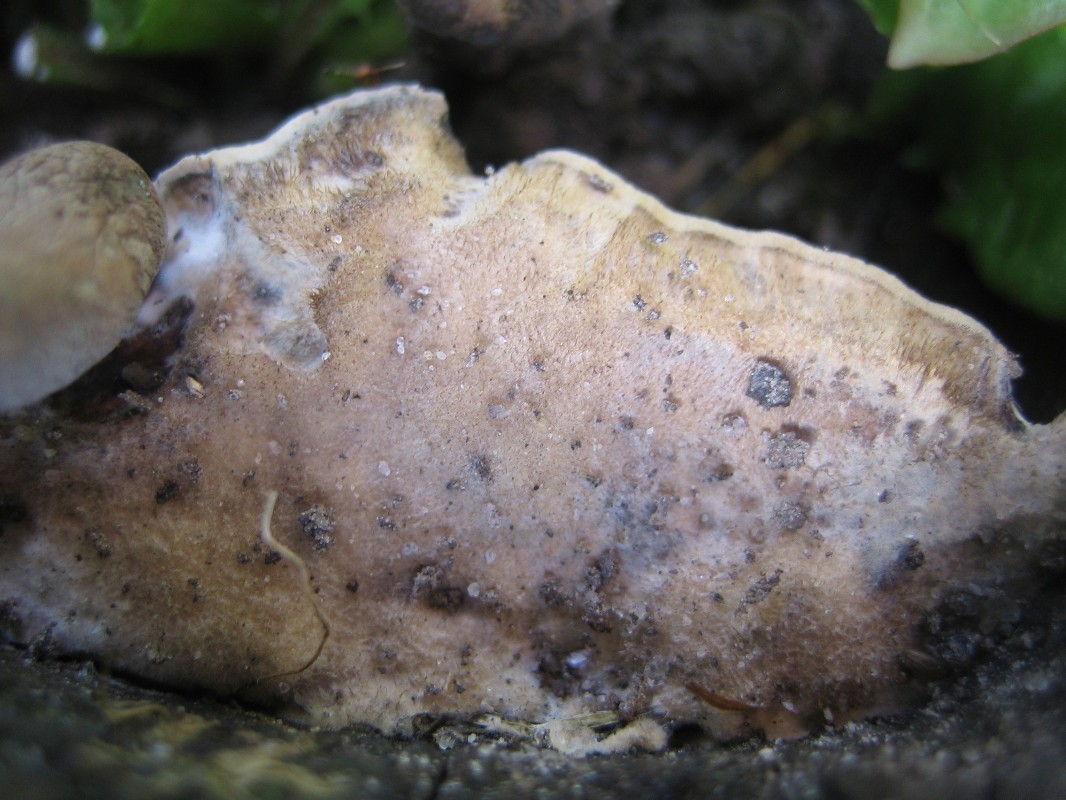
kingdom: Fungi
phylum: Basidiomycota
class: Agaricomycetes
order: Polyporales
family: Phanerochaetaceae
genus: Bjerkandera
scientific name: Bjerkandera adusta
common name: sveden sodporesvamp
